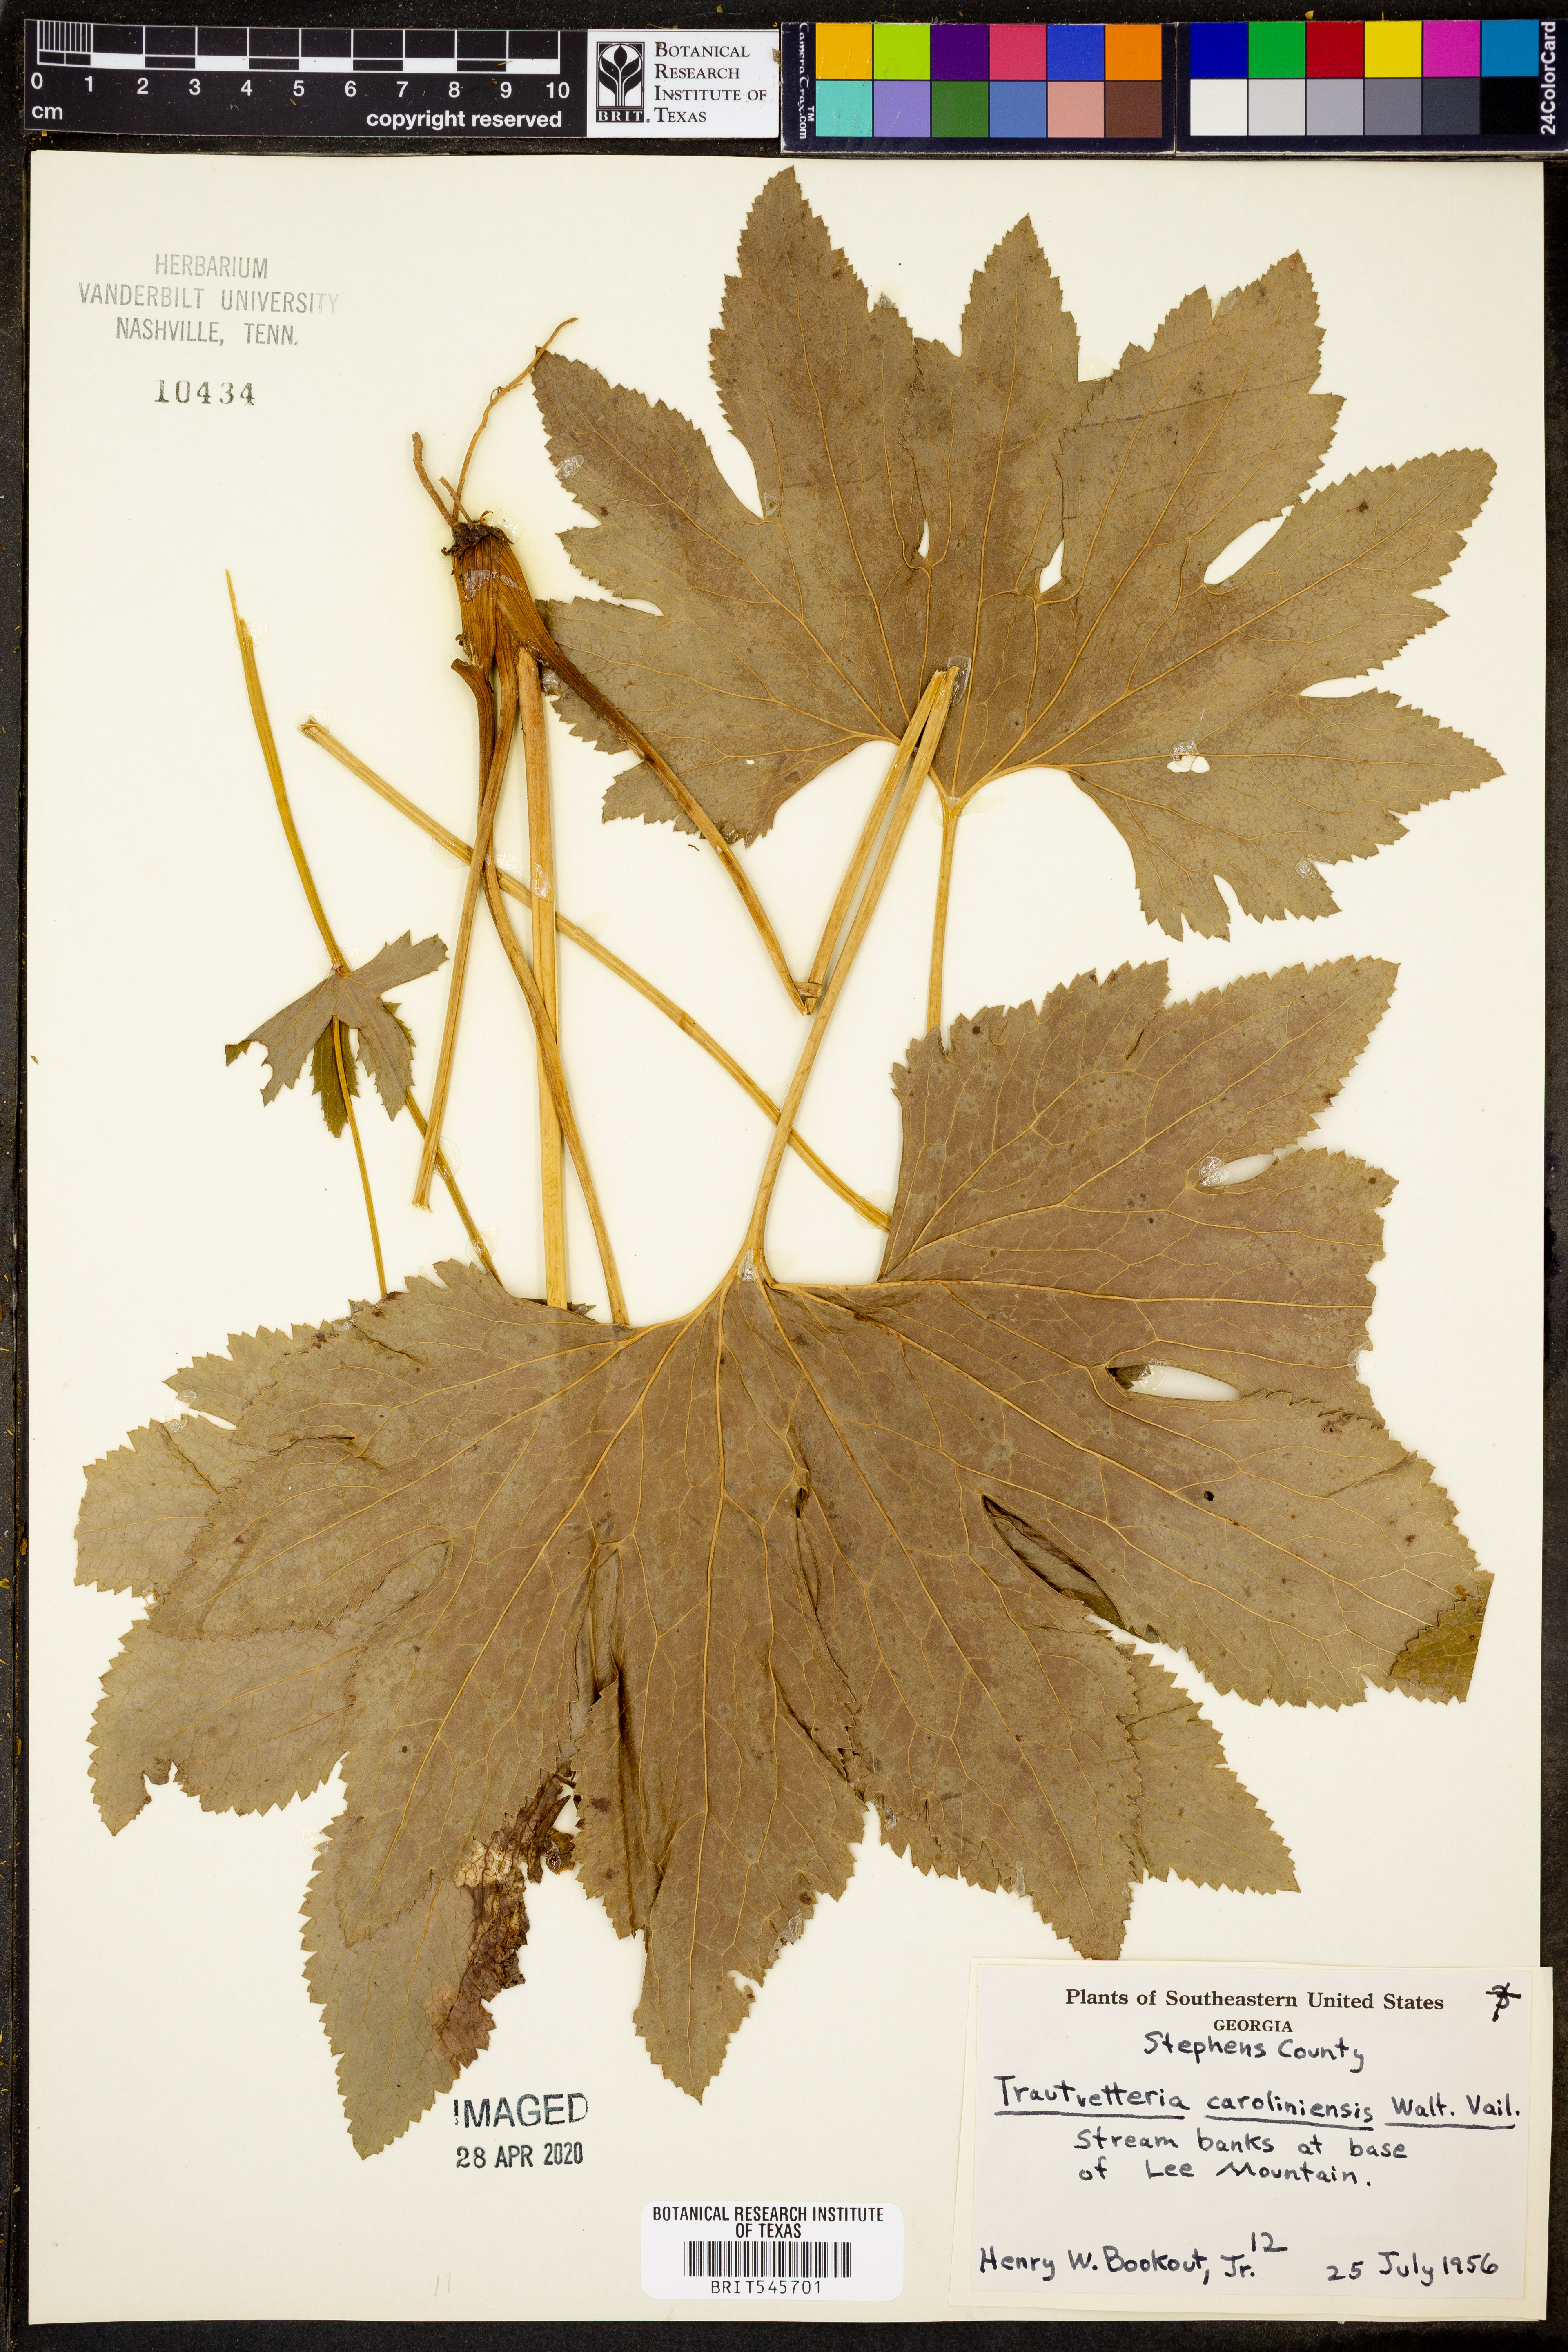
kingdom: Plantae
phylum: Tracheophyta
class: Magnoliopsida
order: Ranunculales
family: Ranunculaceae
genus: Trautvetteria
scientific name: Trautvetteria carolinensis
